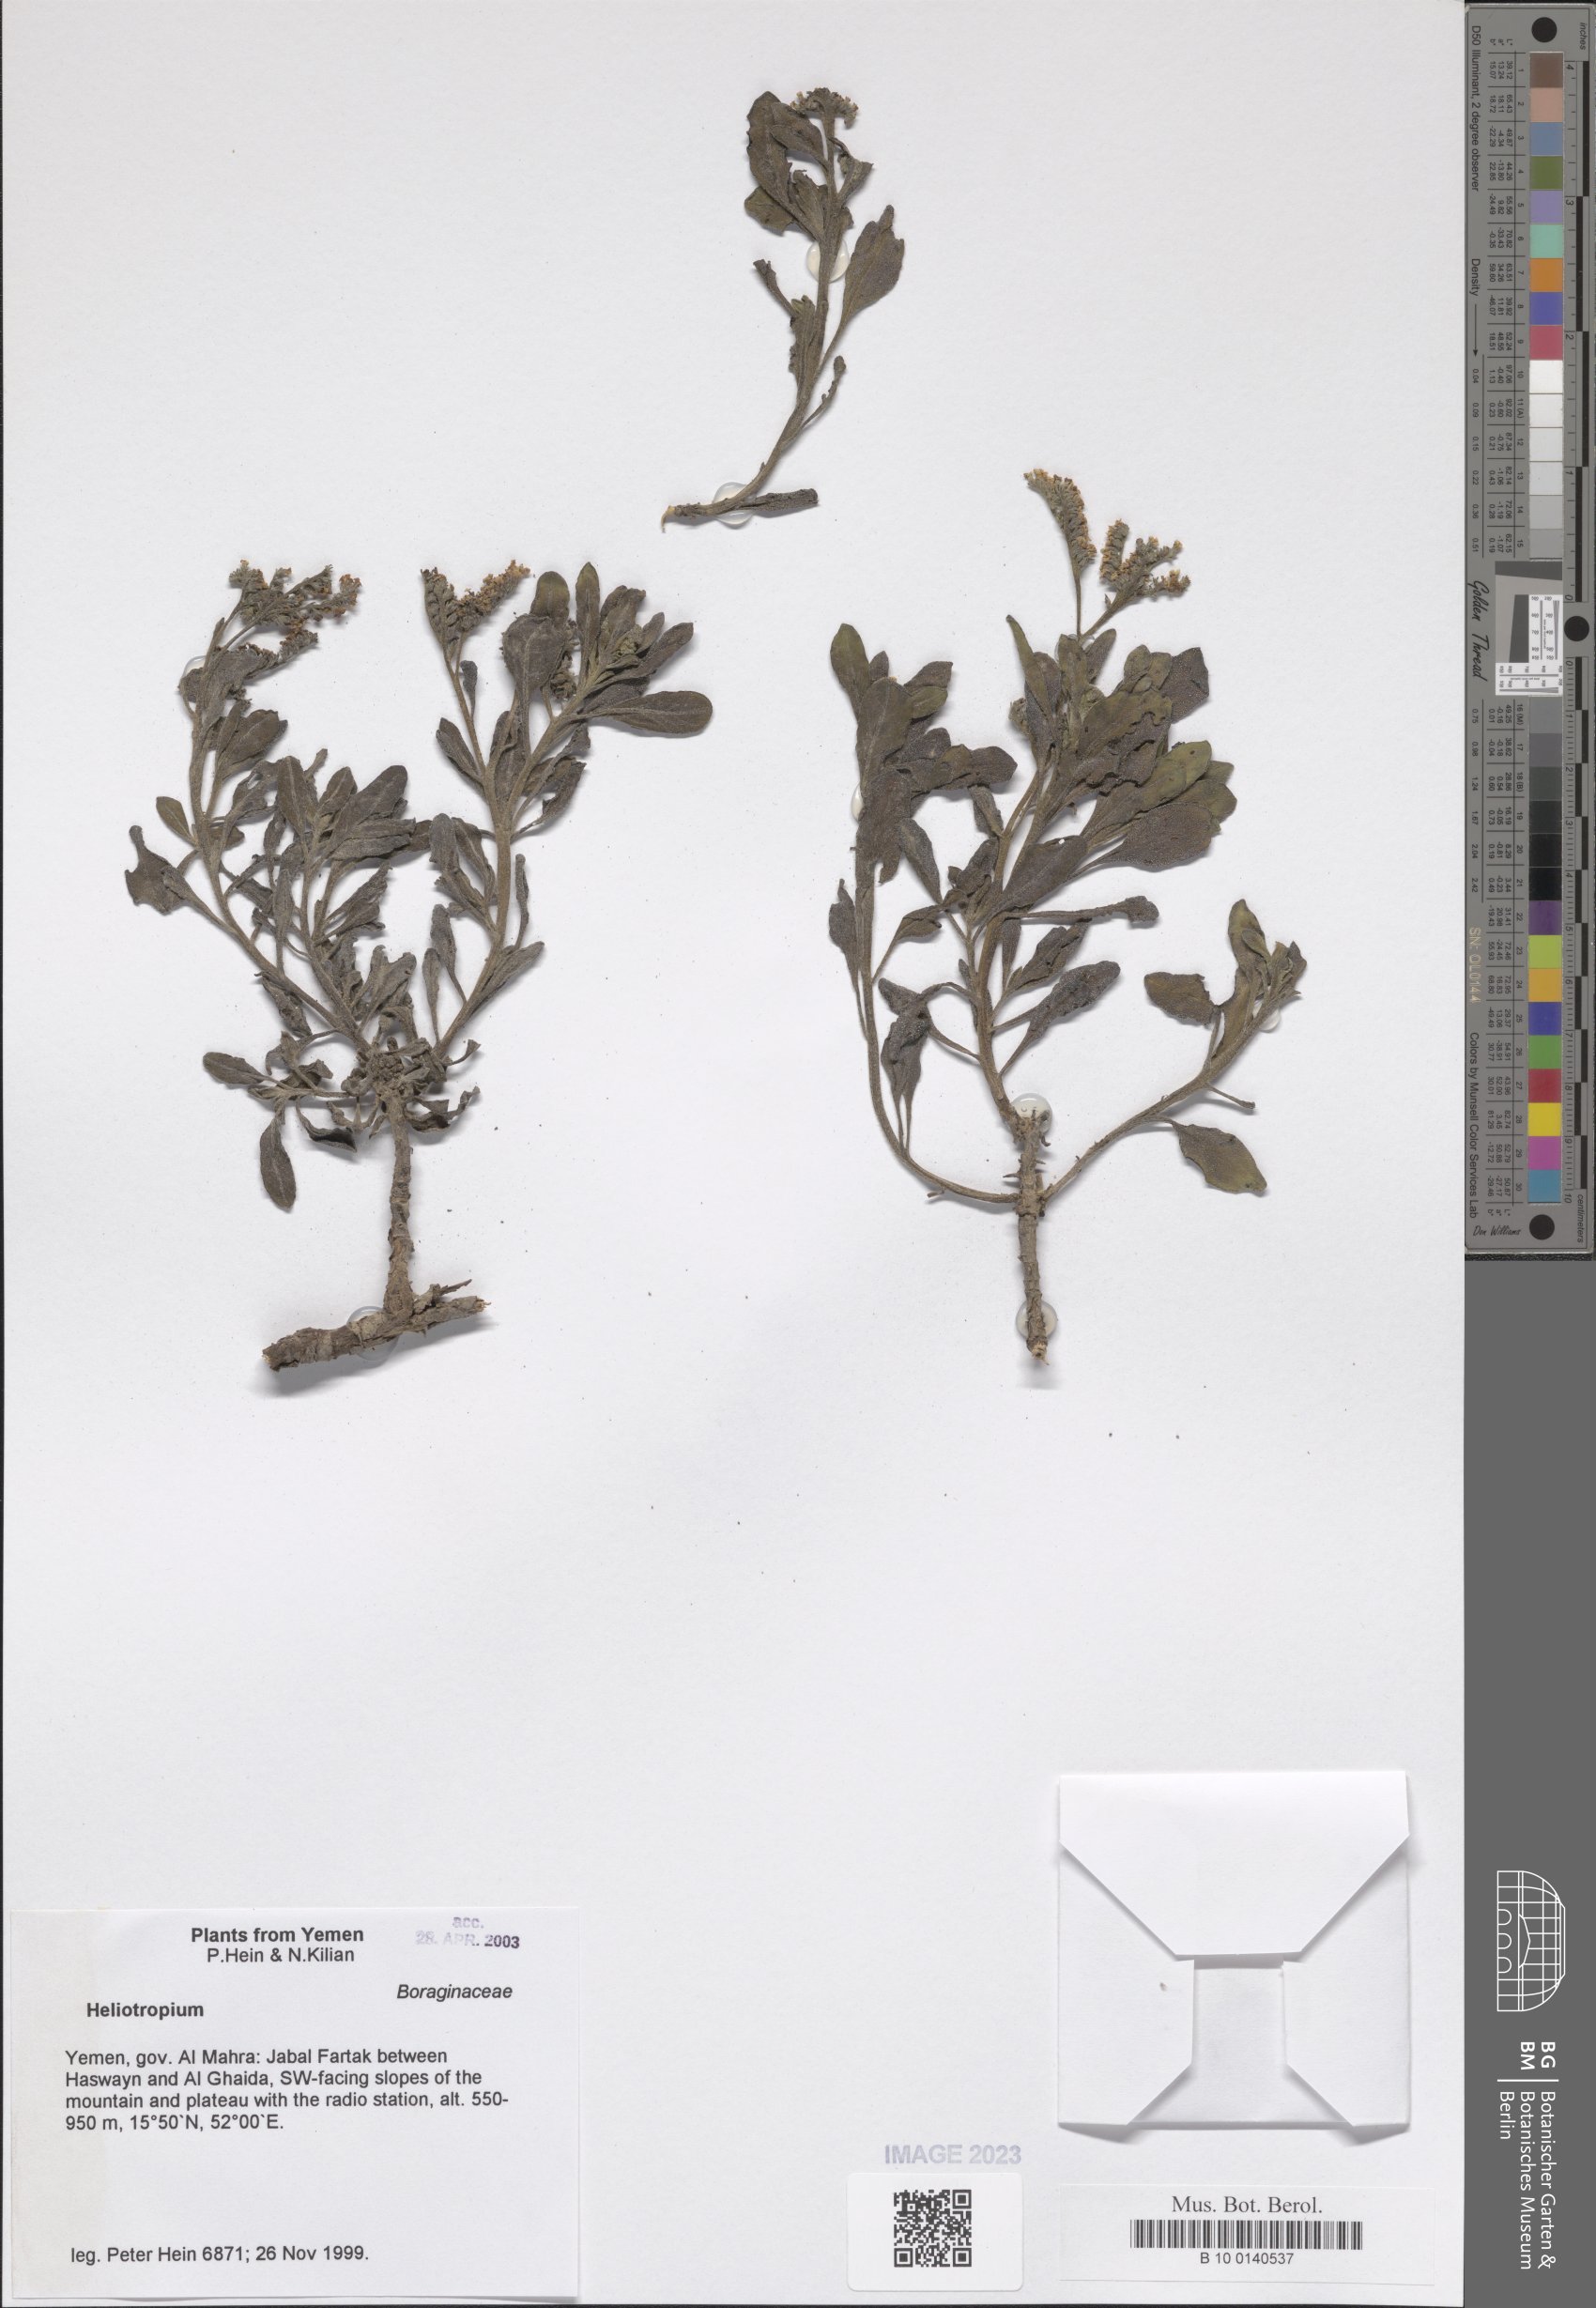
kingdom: Plantae
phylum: Tracheophyta
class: Magnoliopsida
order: Boraginales
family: Heliotropiaceae
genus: Heliotropium
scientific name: Heliotropium
